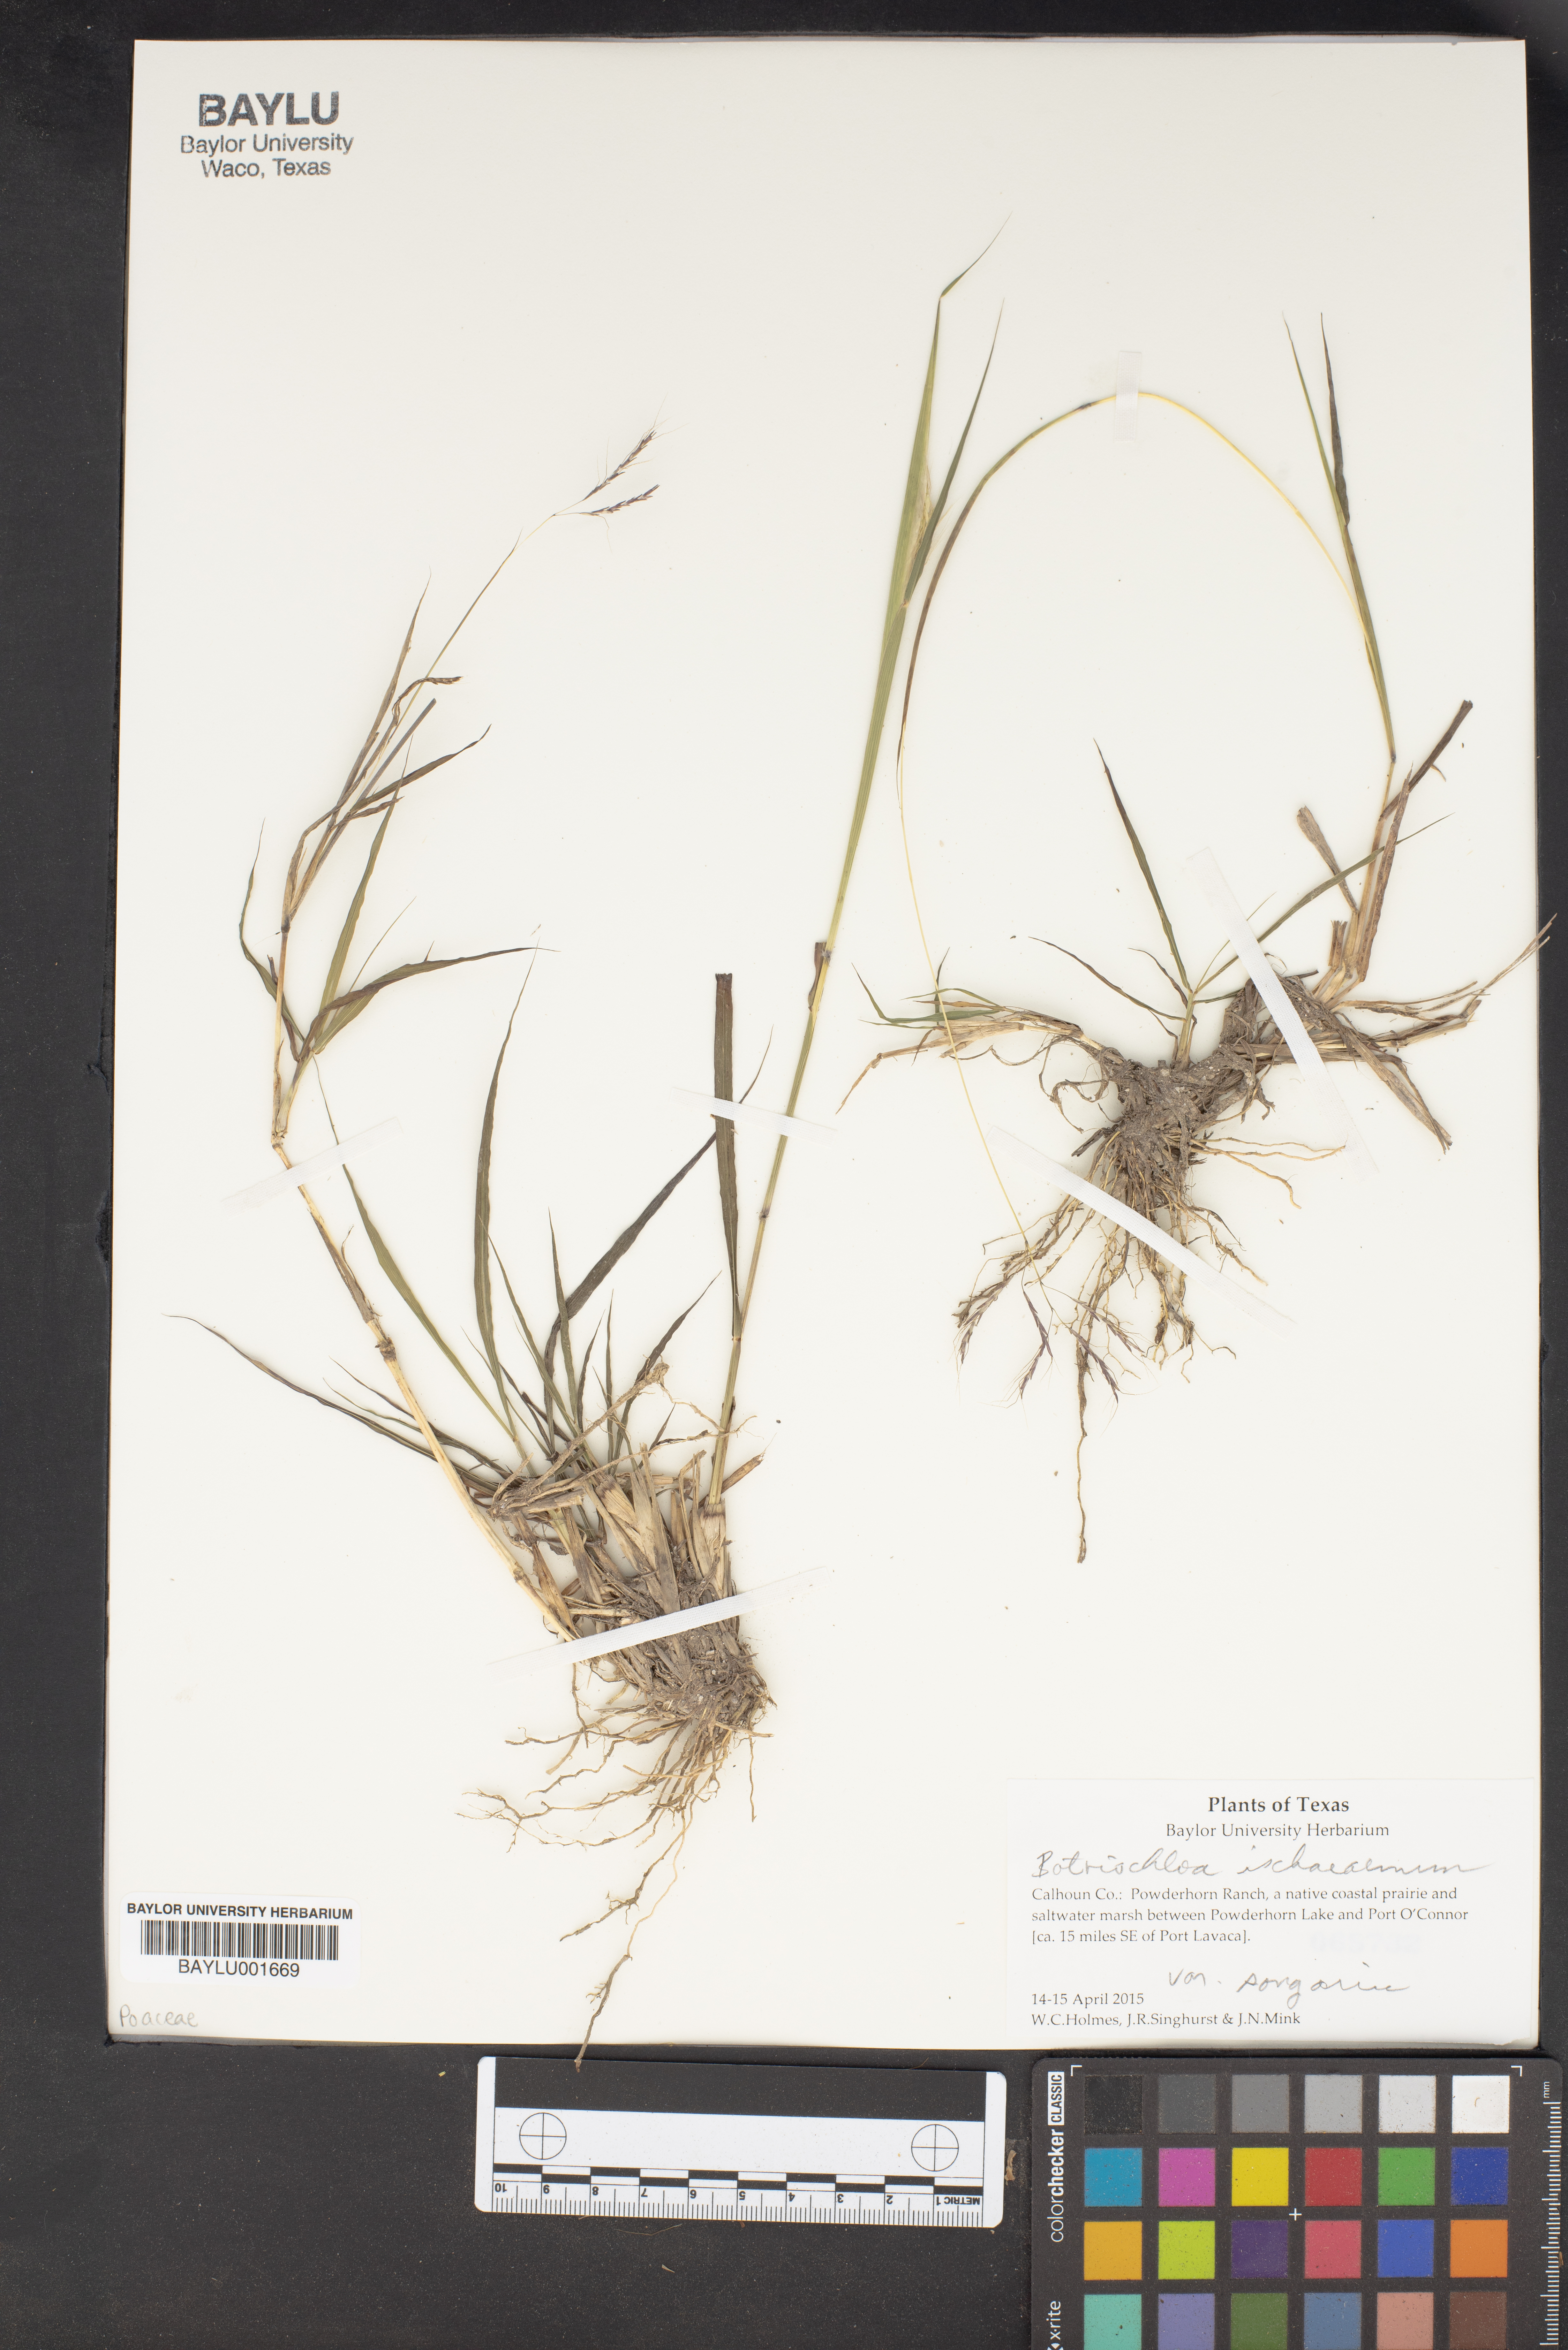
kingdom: Plantae
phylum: Tracheophyta
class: Liliopsida
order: Poales
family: Poaceae
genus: Bothriochloa
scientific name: Bothriochloa ischaemum
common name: Yellow bluestem
